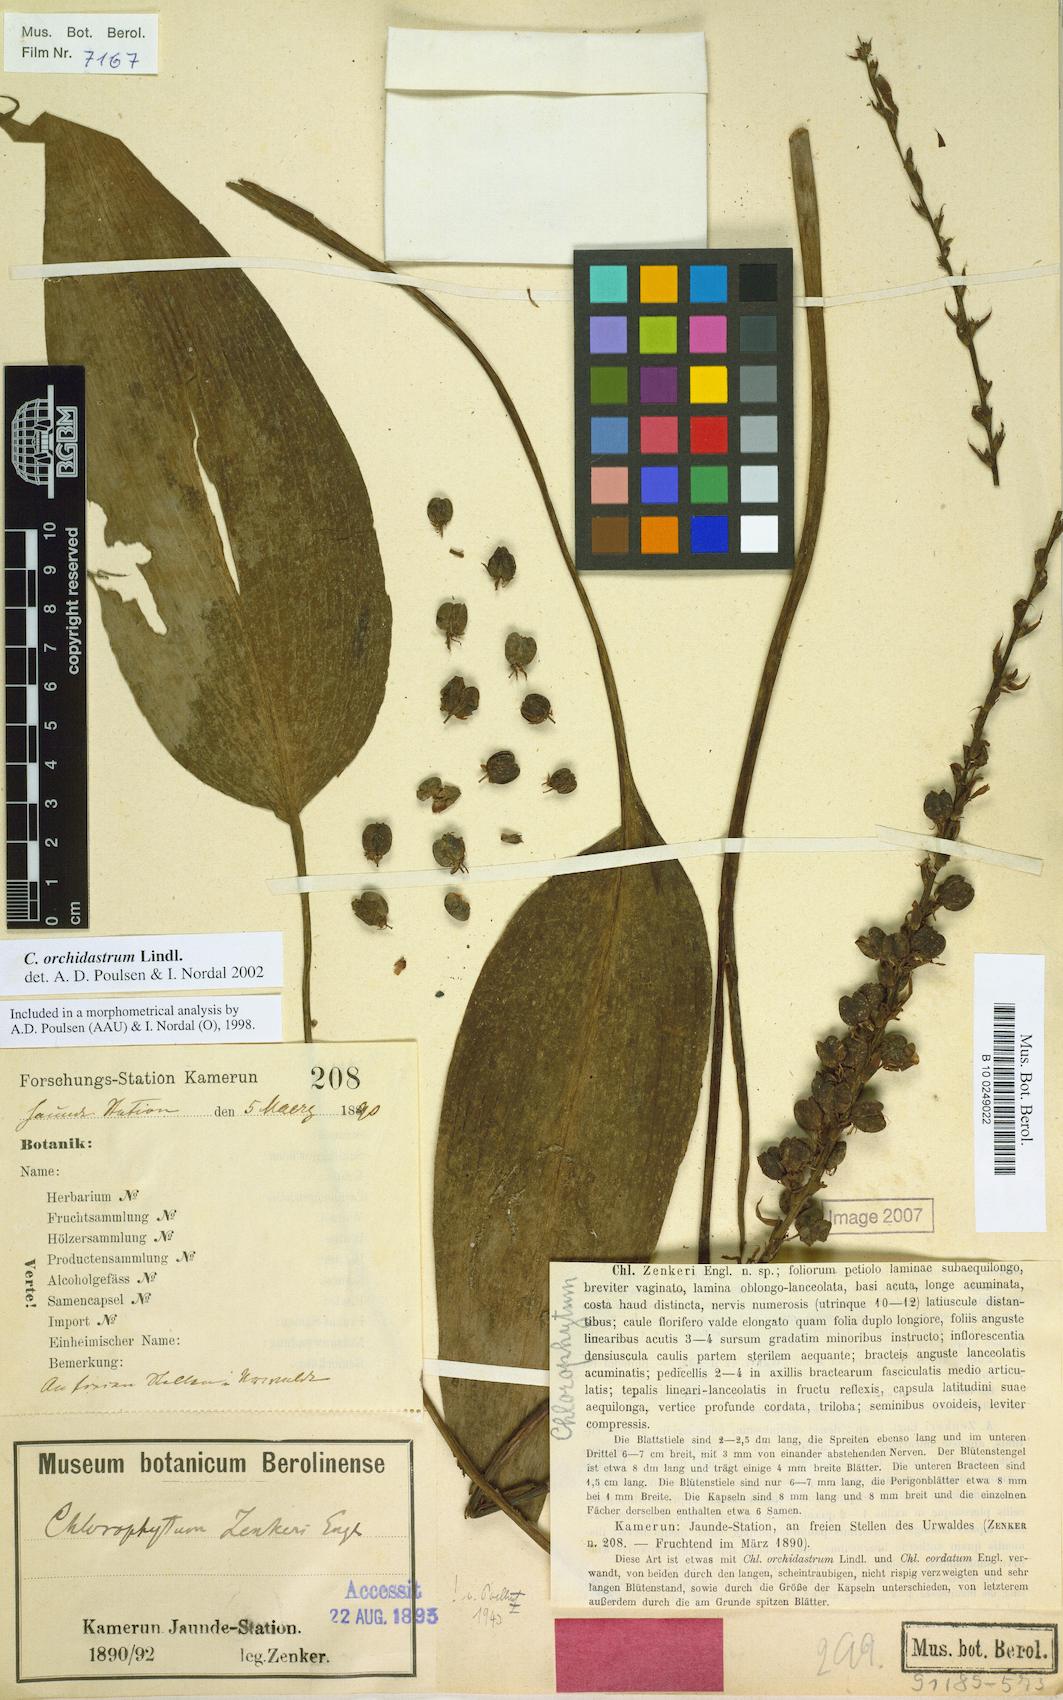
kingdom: Plantae
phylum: Tracheophyta
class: Liliopsida
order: Asparagales
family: Asparagaceae
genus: Chlorophytum
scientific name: Chlorophytum orchidastrum
